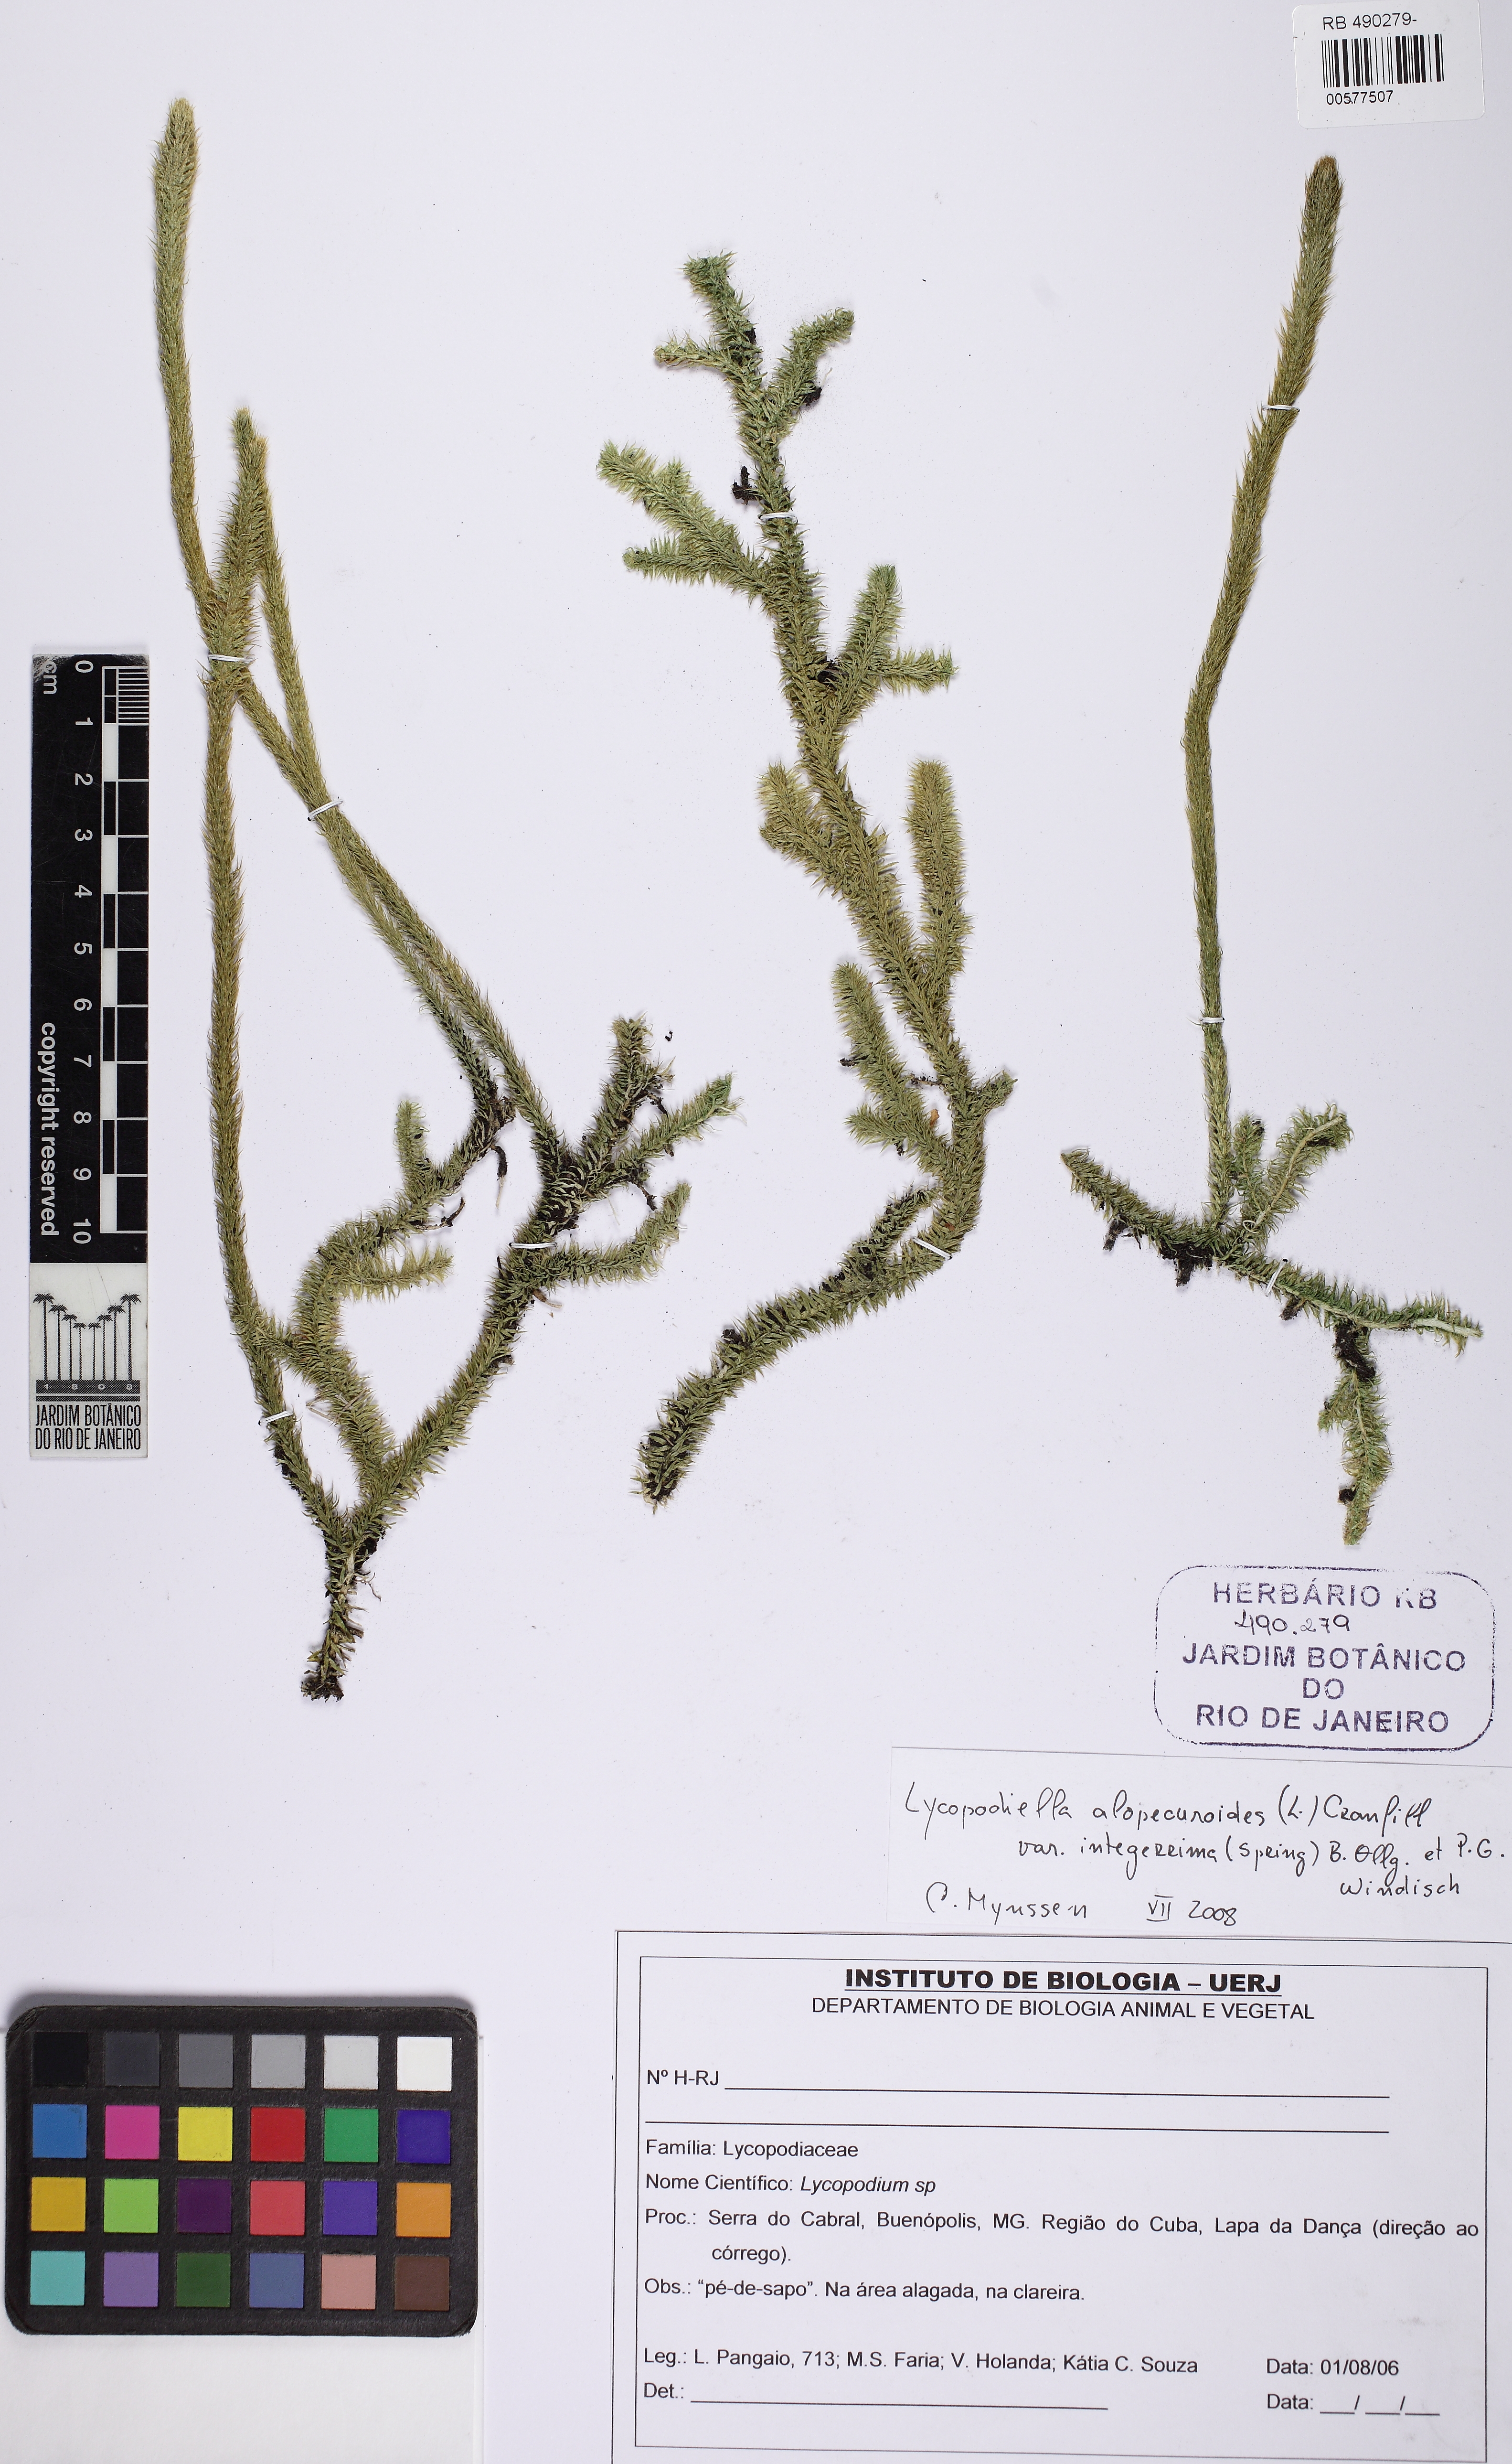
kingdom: Plantae
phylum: Tracheophyta
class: Lycopodiopsida
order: Lycopodiales
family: Lycopodiaceae
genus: Lycopodiella
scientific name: Lycopodiella longipes
